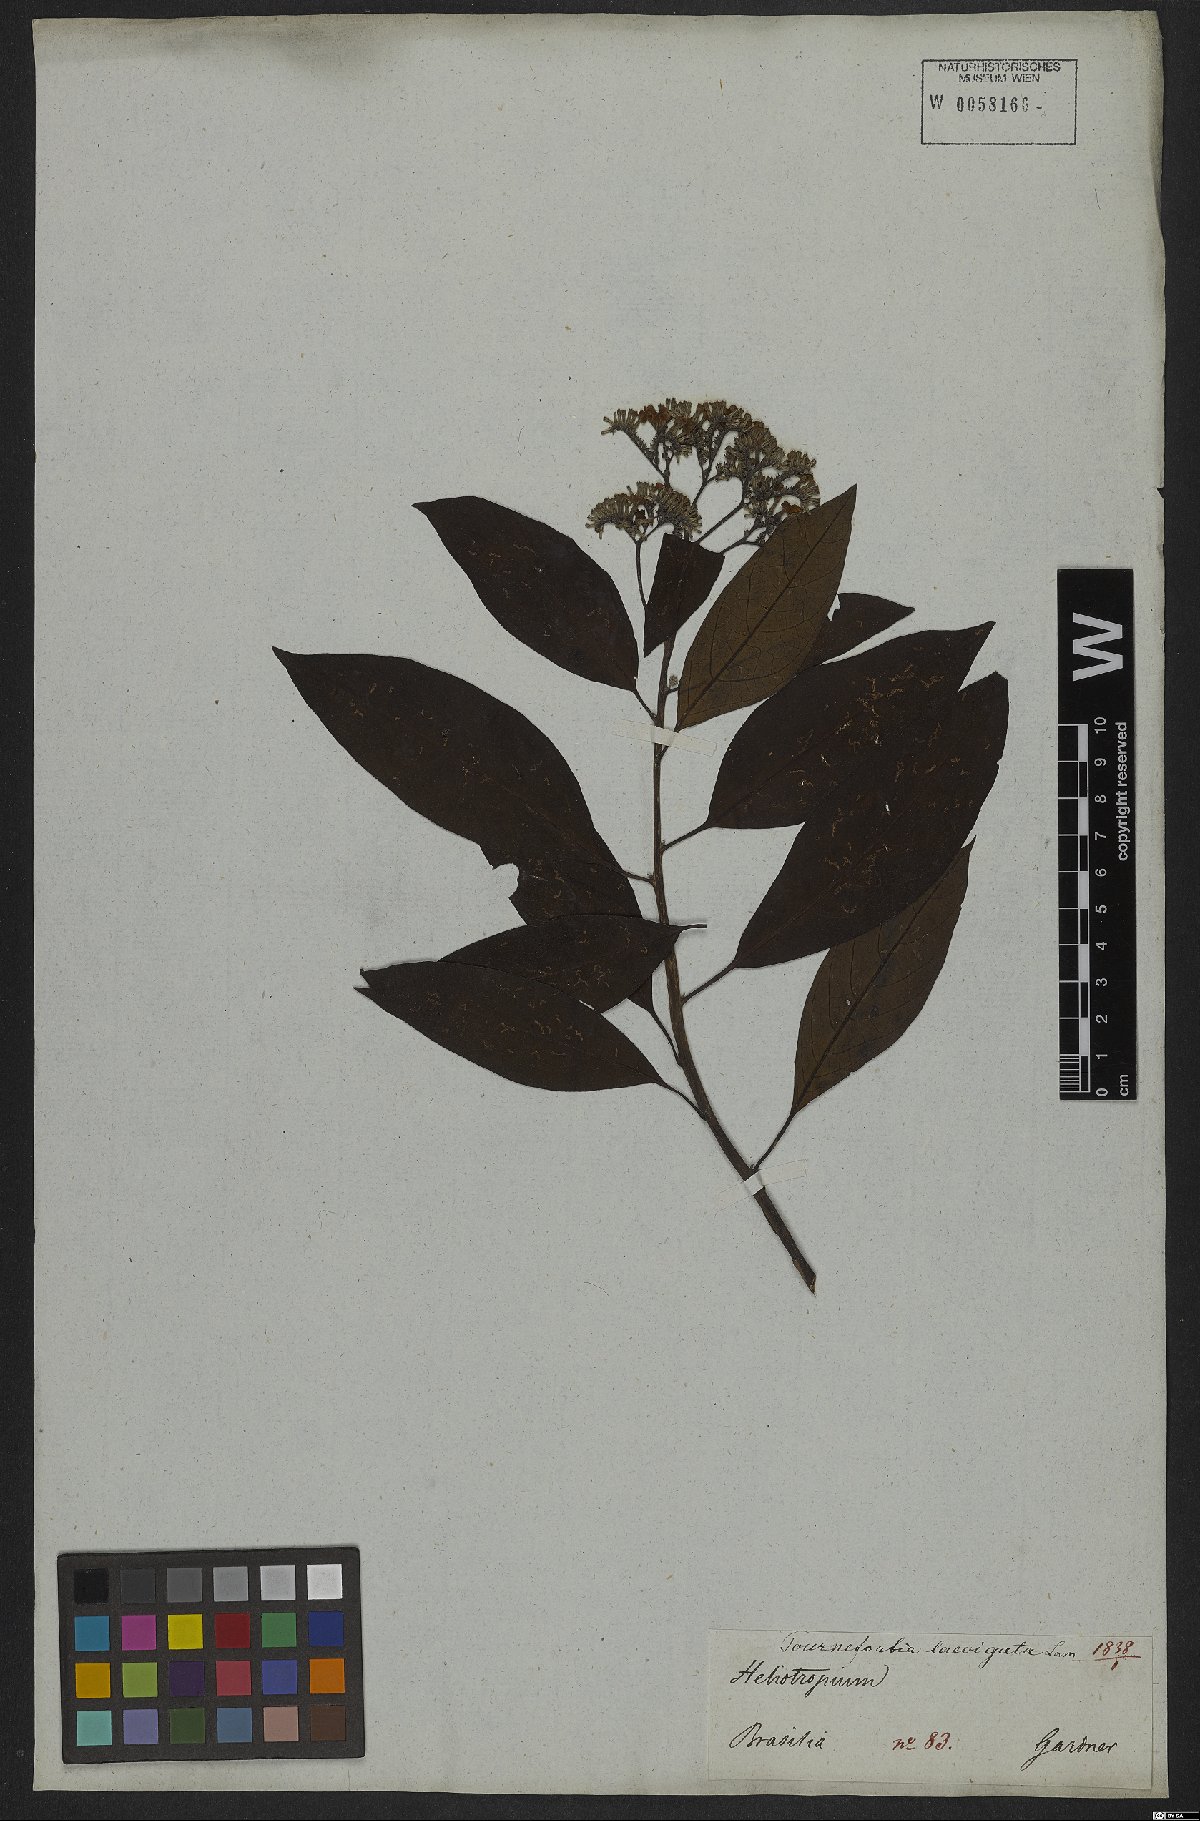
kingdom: Plantae
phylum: Tracheophyta
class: Magnoliopsida
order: Boraginales
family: Heliotropiaceae
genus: Heliotropium
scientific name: Heliotropium verdcourtii
